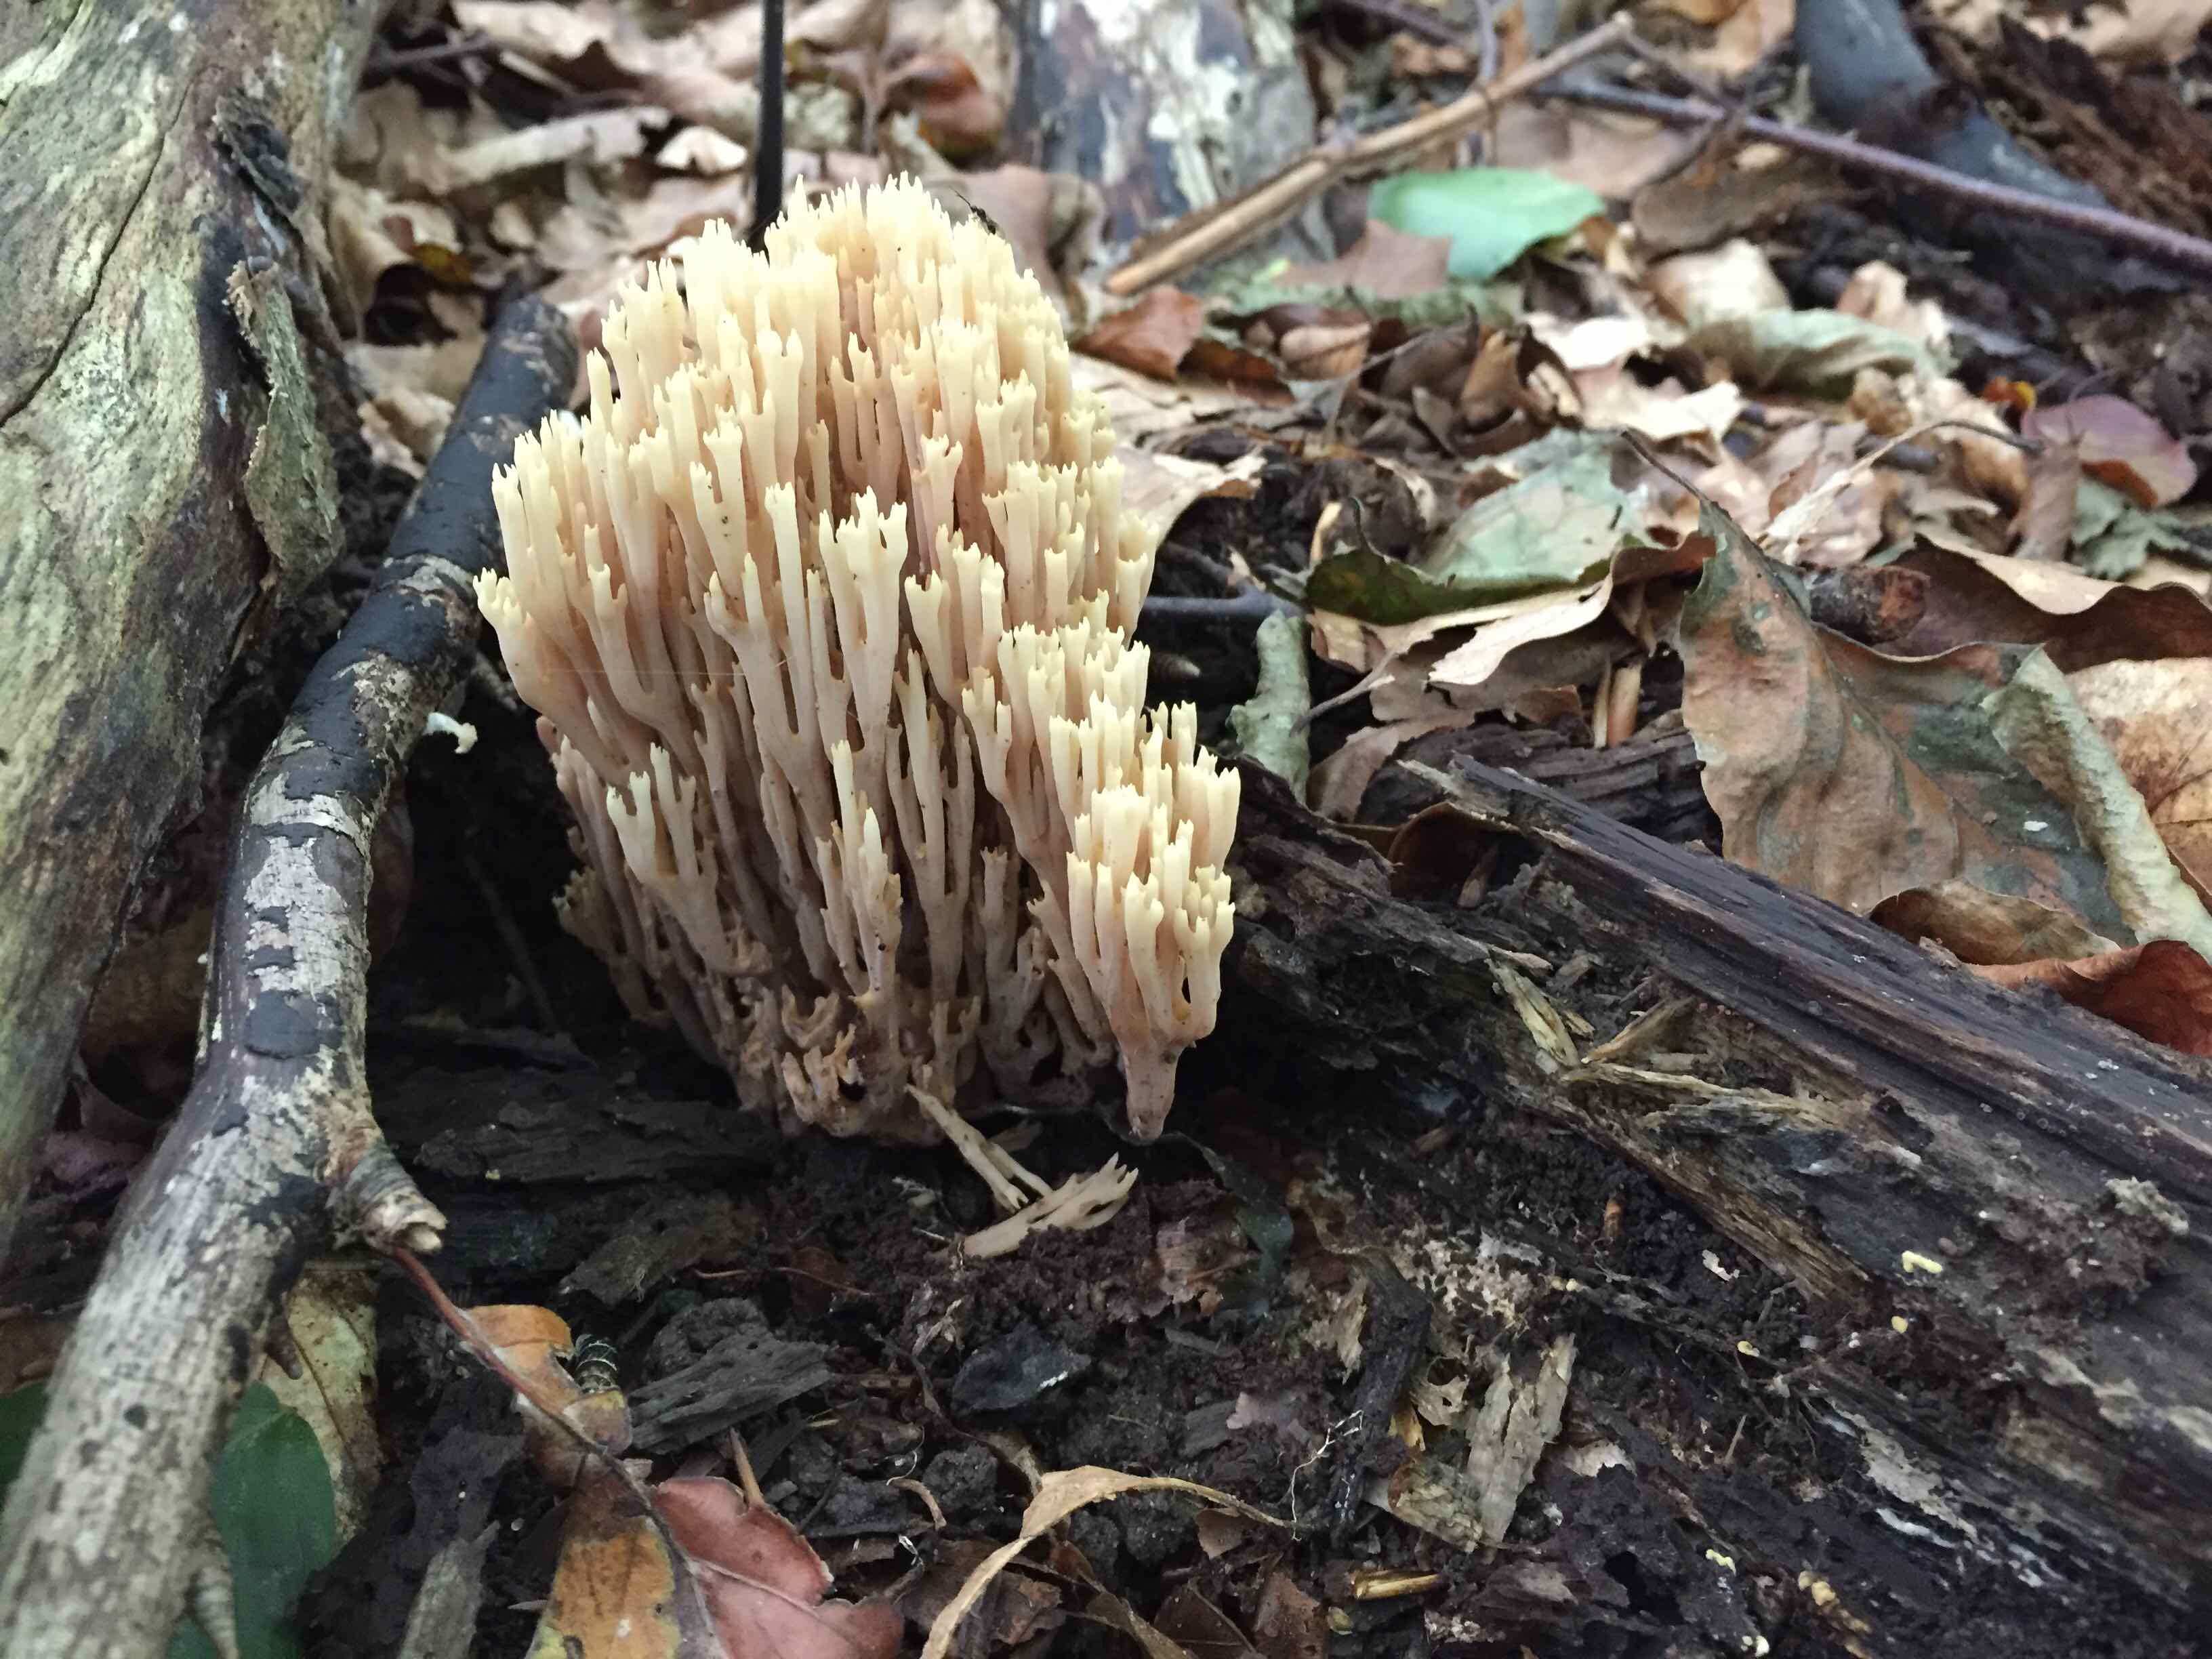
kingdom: Fungi
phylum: Basidiomycota
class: Agaricomycetes
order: Gomphales
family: Gomphaceae
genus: Ramaria
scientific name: Ramaria stricta
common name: rank koralsvamp
